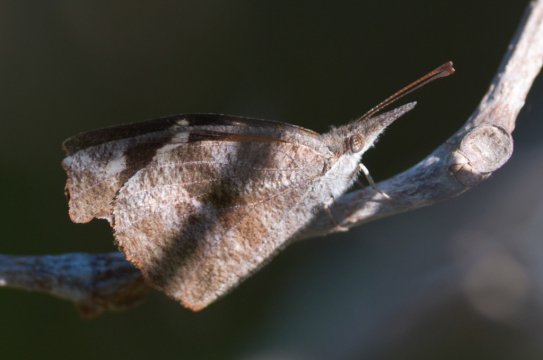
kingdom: Animalia
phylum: Arthropoda
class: Insecta
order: Lepidoptera
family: Nymphalidae
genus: Libytheana
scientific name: Libytheana carinenta
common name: American Snout
